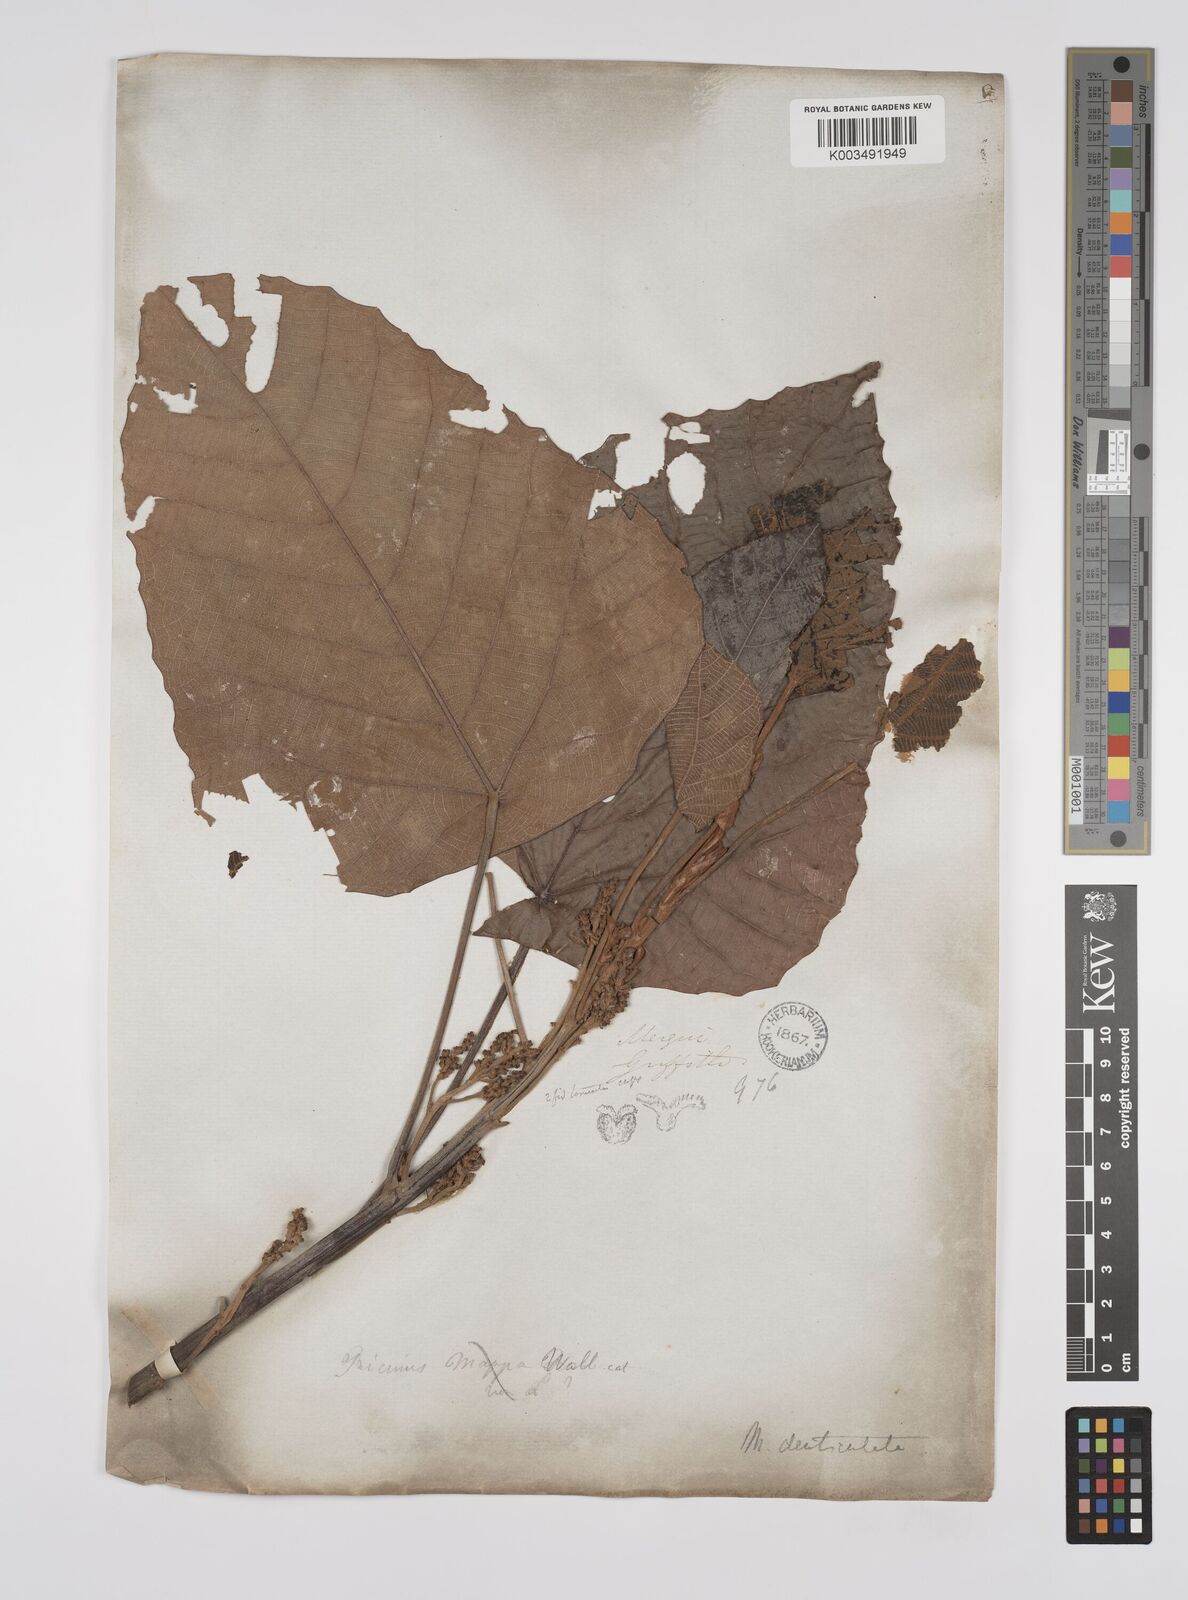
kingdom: Plantae
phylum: Tracheophyta
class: Magnoliopsida
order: Malpighiales
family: Euphorbiaceae
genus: Macaranga
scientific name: Macaranga denticulata
